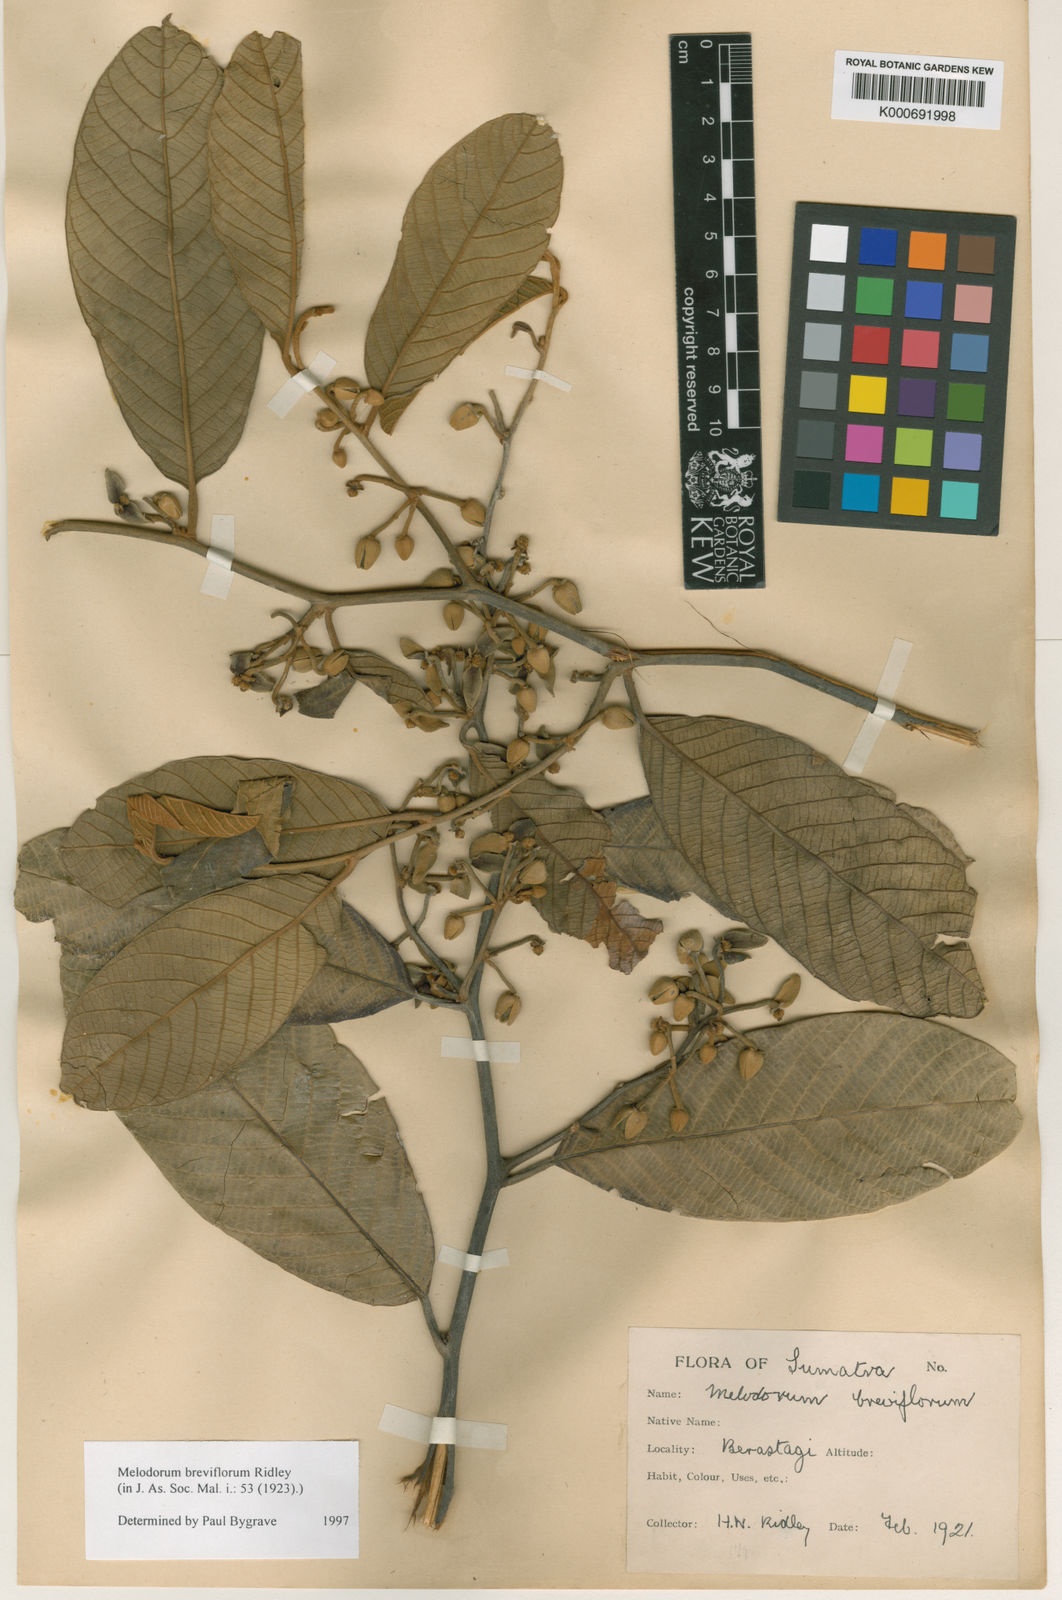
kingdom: Plantae
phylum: Tracheophyta
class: Magnoliopsida
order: Magnoliales
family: Annonaceae
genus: Fissistigma
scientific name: Fissistigma latifolium
